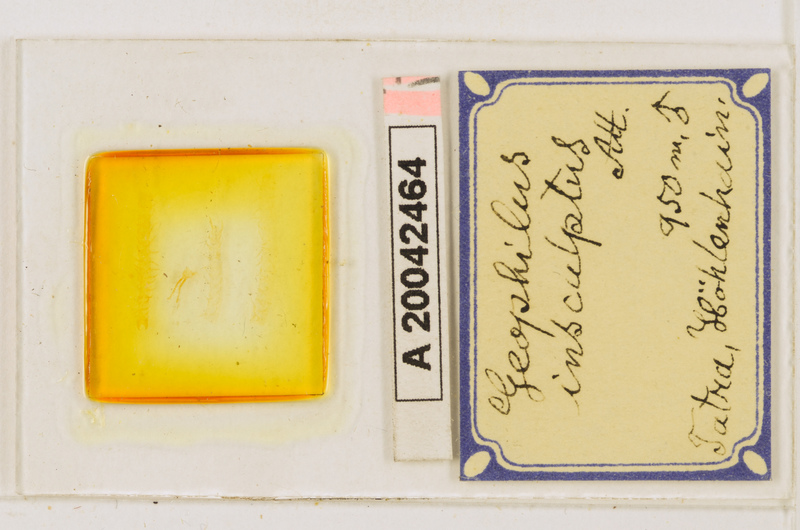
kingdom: Animalia
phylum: Arthropoda
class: Chilopoda
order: Geophilomorpha
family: Geophilidae
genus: Geophilus
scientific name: Geophilus insculptus
